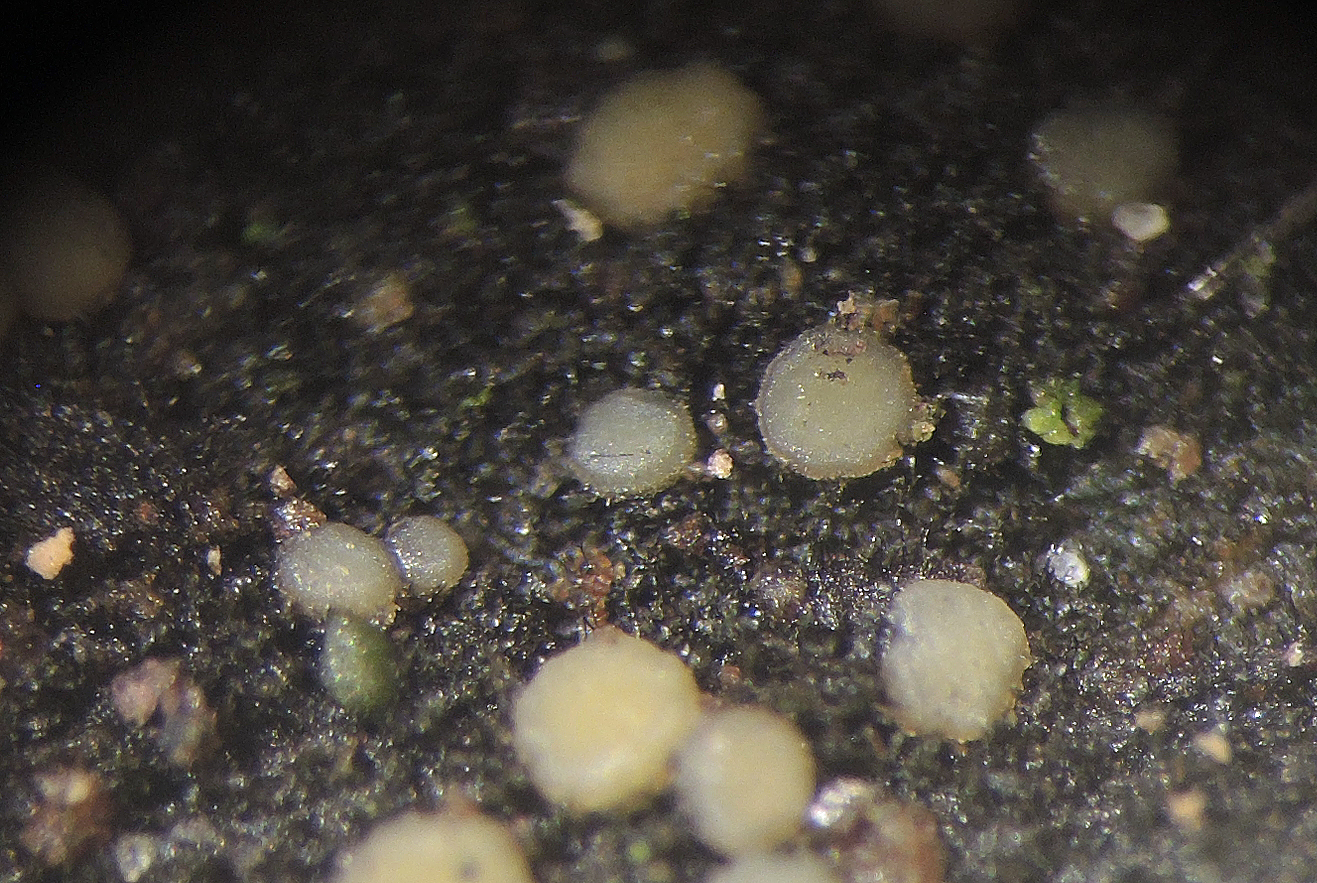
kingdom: Fungi
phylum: Ascomycota
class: Leotiomycetes
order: Helotiales
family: Helotiaceae
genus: Strossmayeria
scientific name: Strossmayeria basitricha
